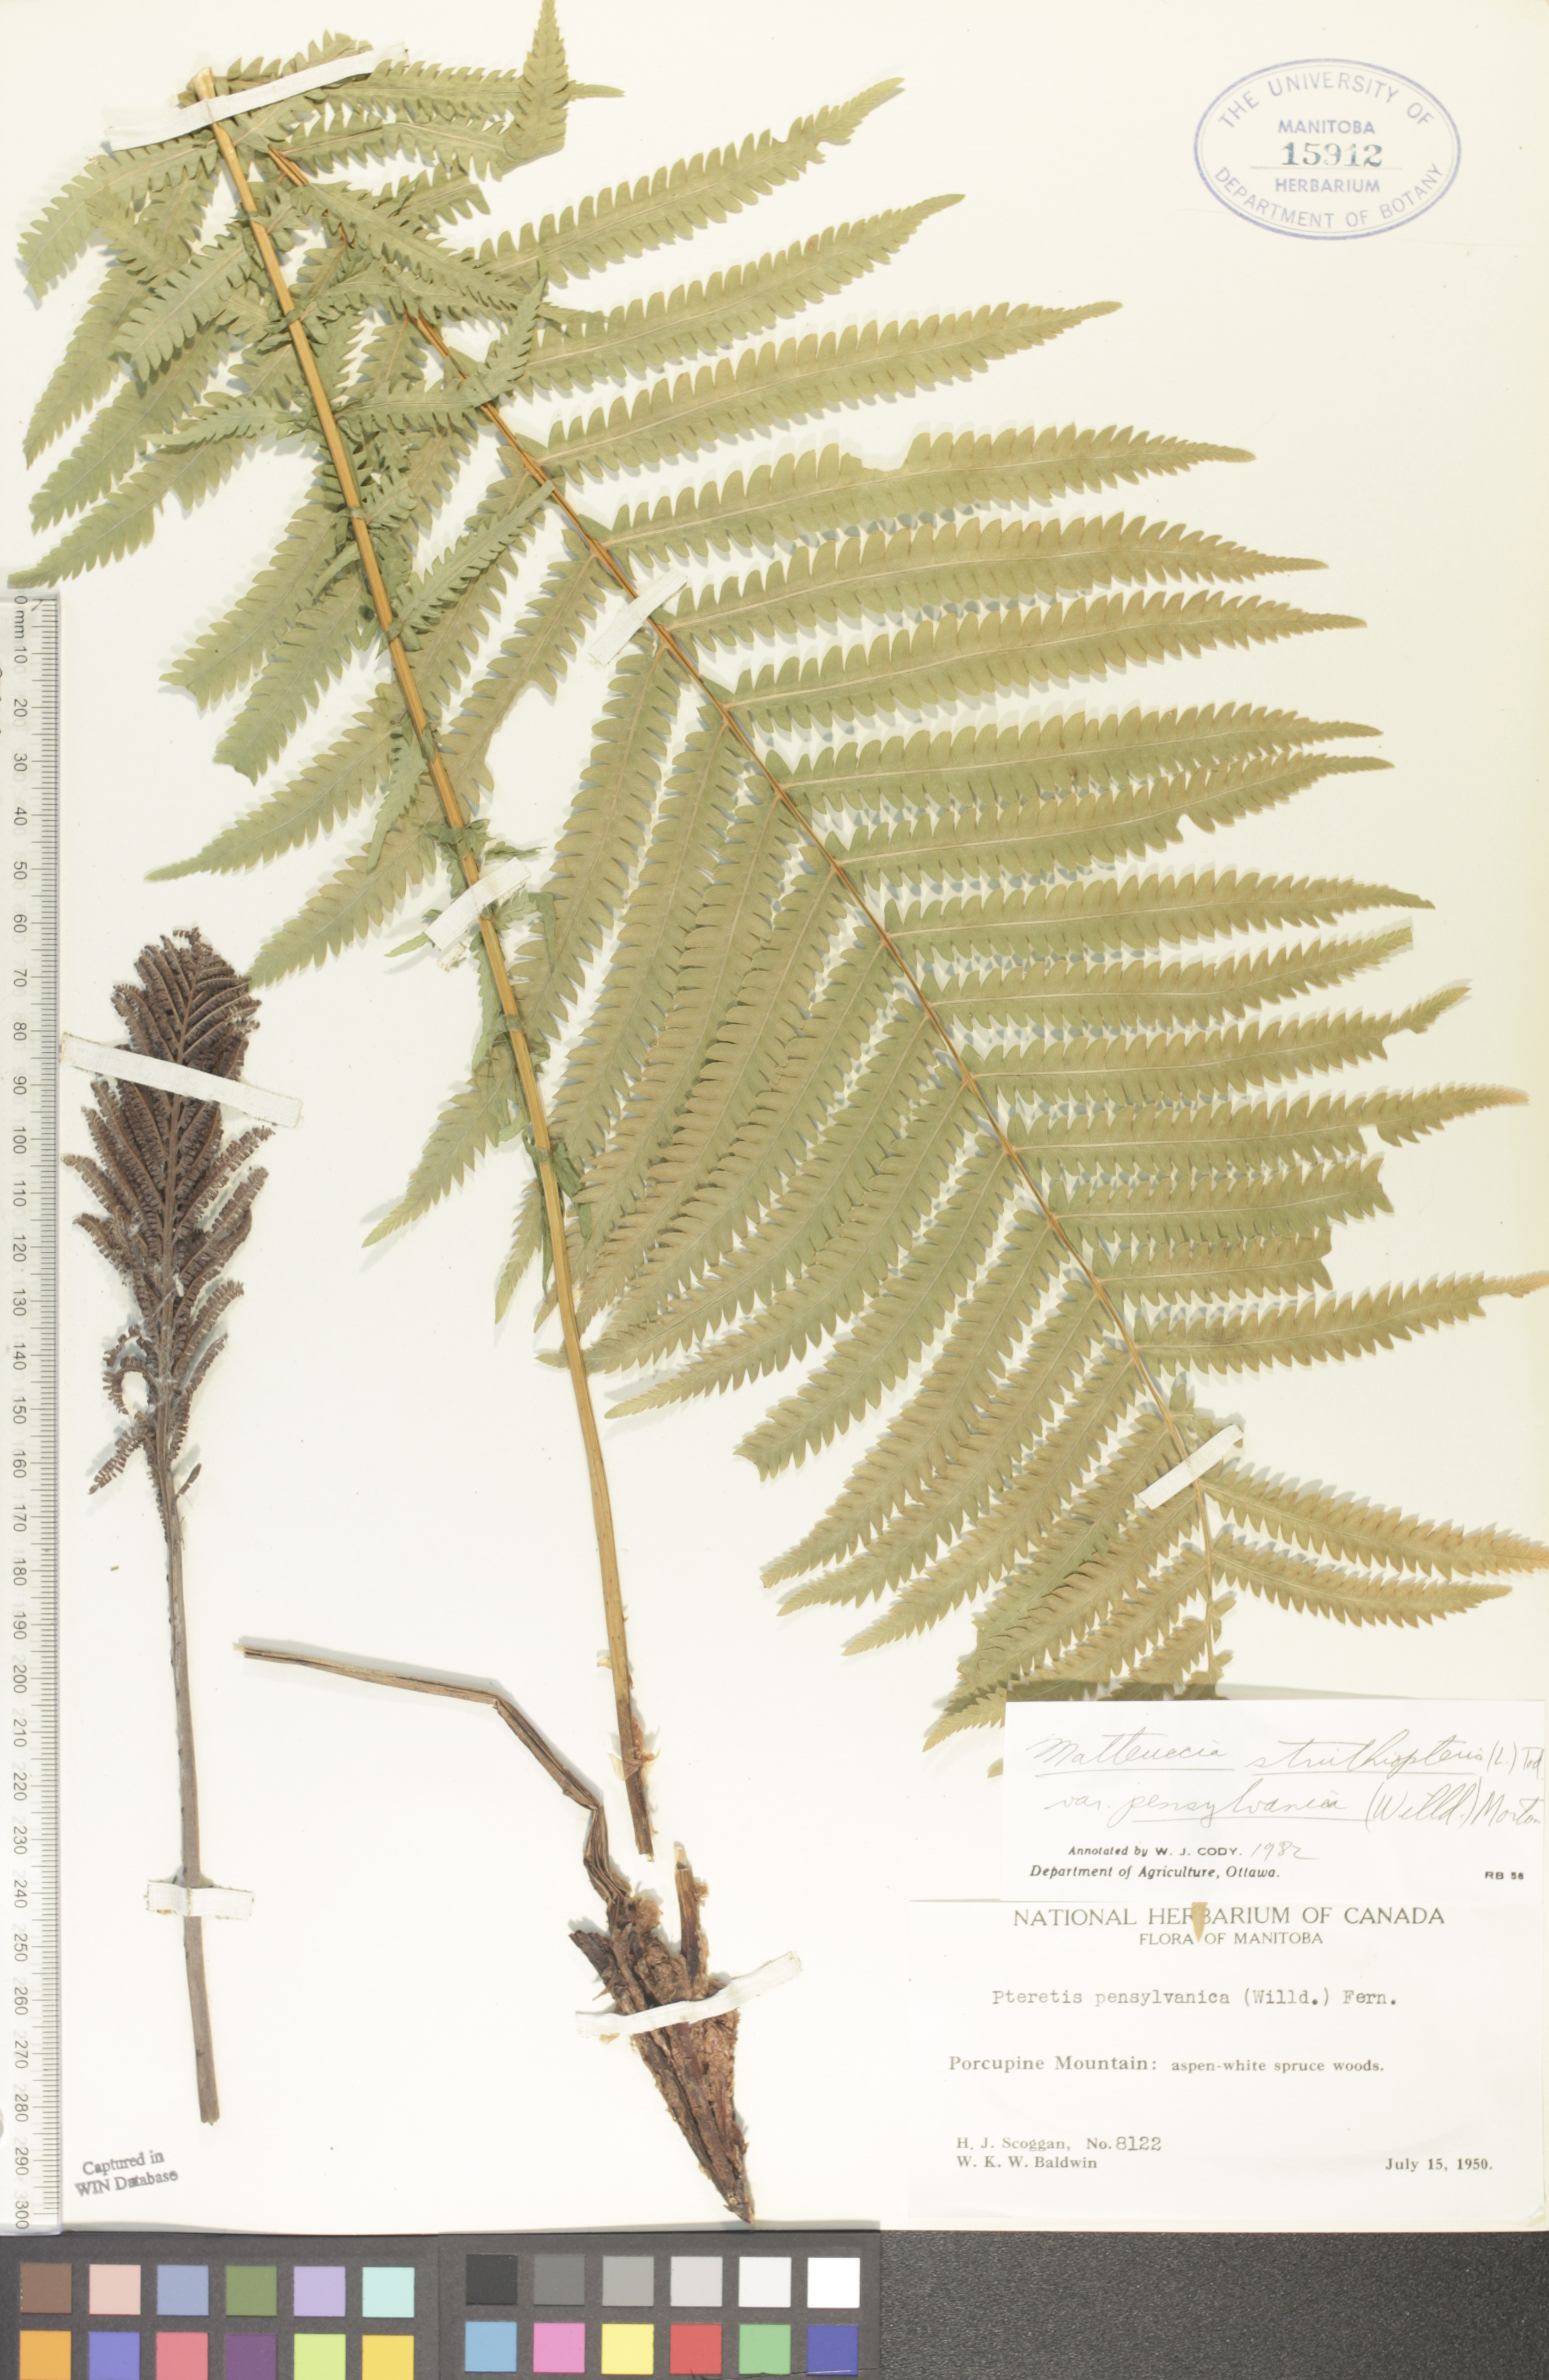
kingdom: Plantae
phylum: Tracheophyta
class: Polypodiopsida
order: Polypodiales
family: Onocleaceae
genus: Matteuccia
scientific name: Matteuccia pensylvanica
